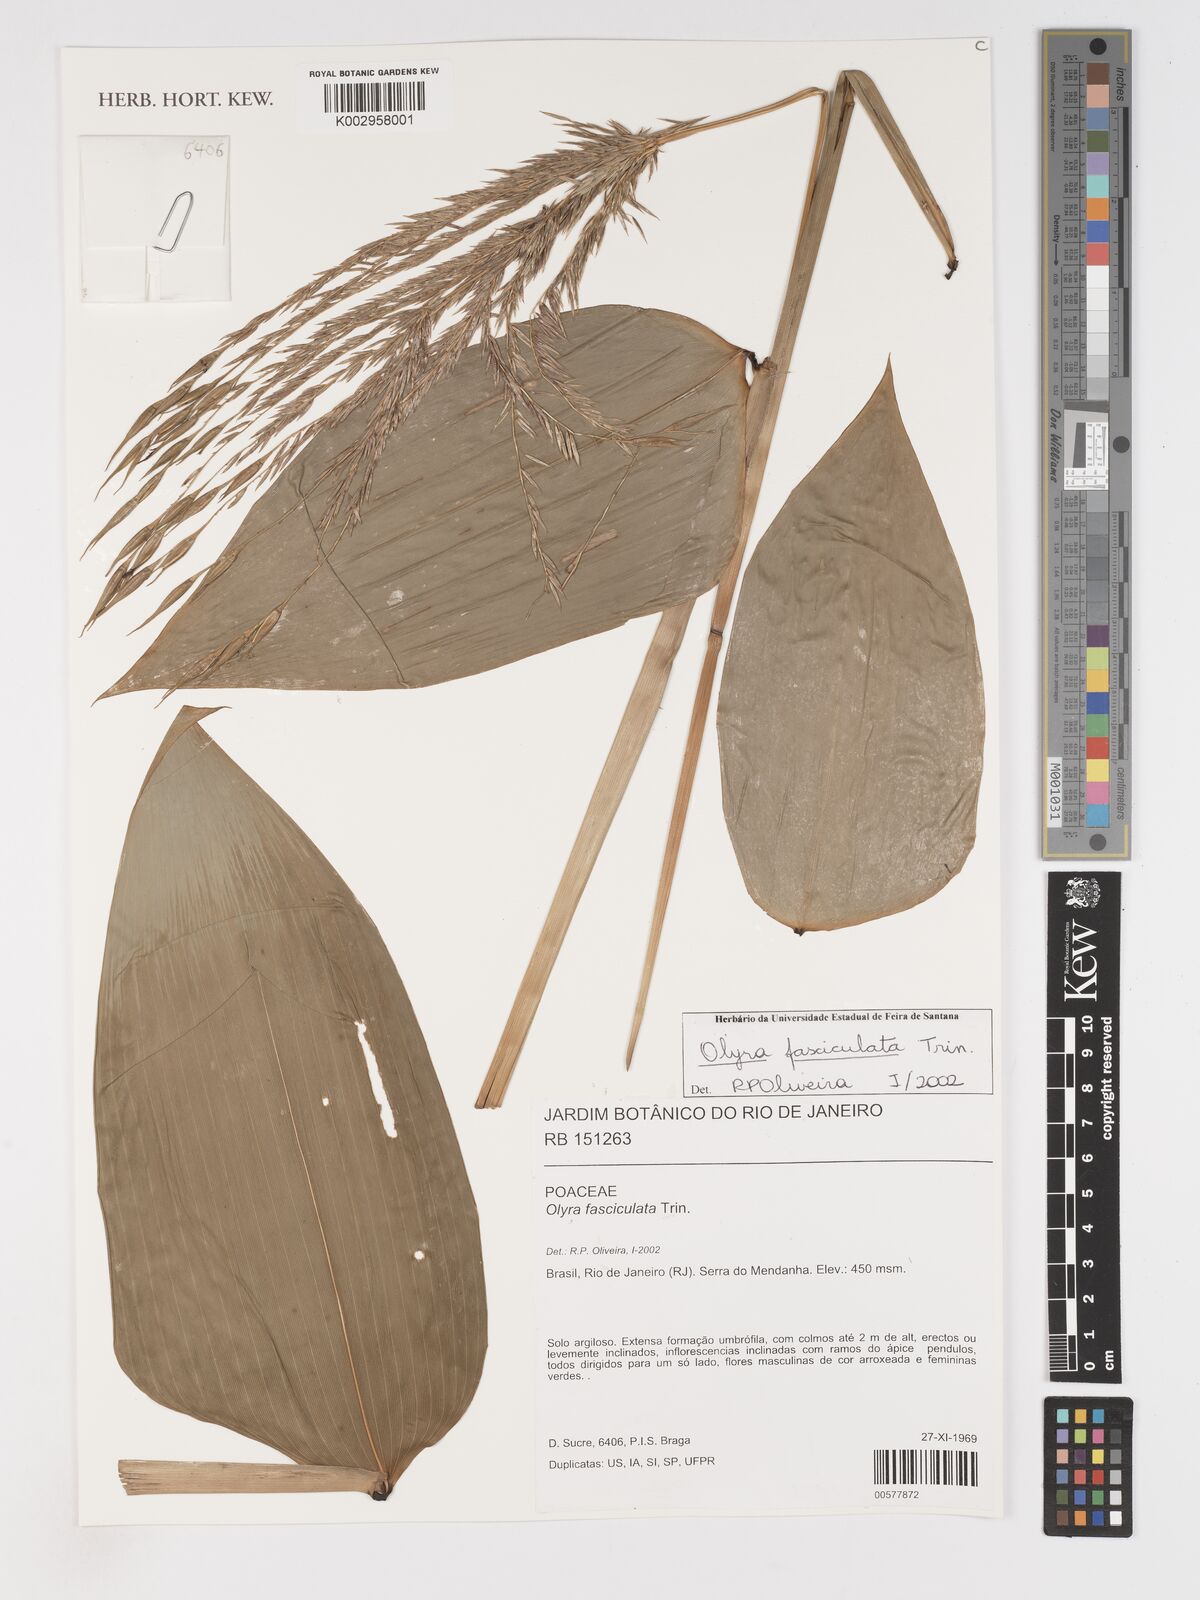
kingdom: Plantae
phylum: Tracheophyta
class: Liliopsida
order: Poales
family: Poaceae
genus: Olyra
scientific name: Olyra fasciculata
